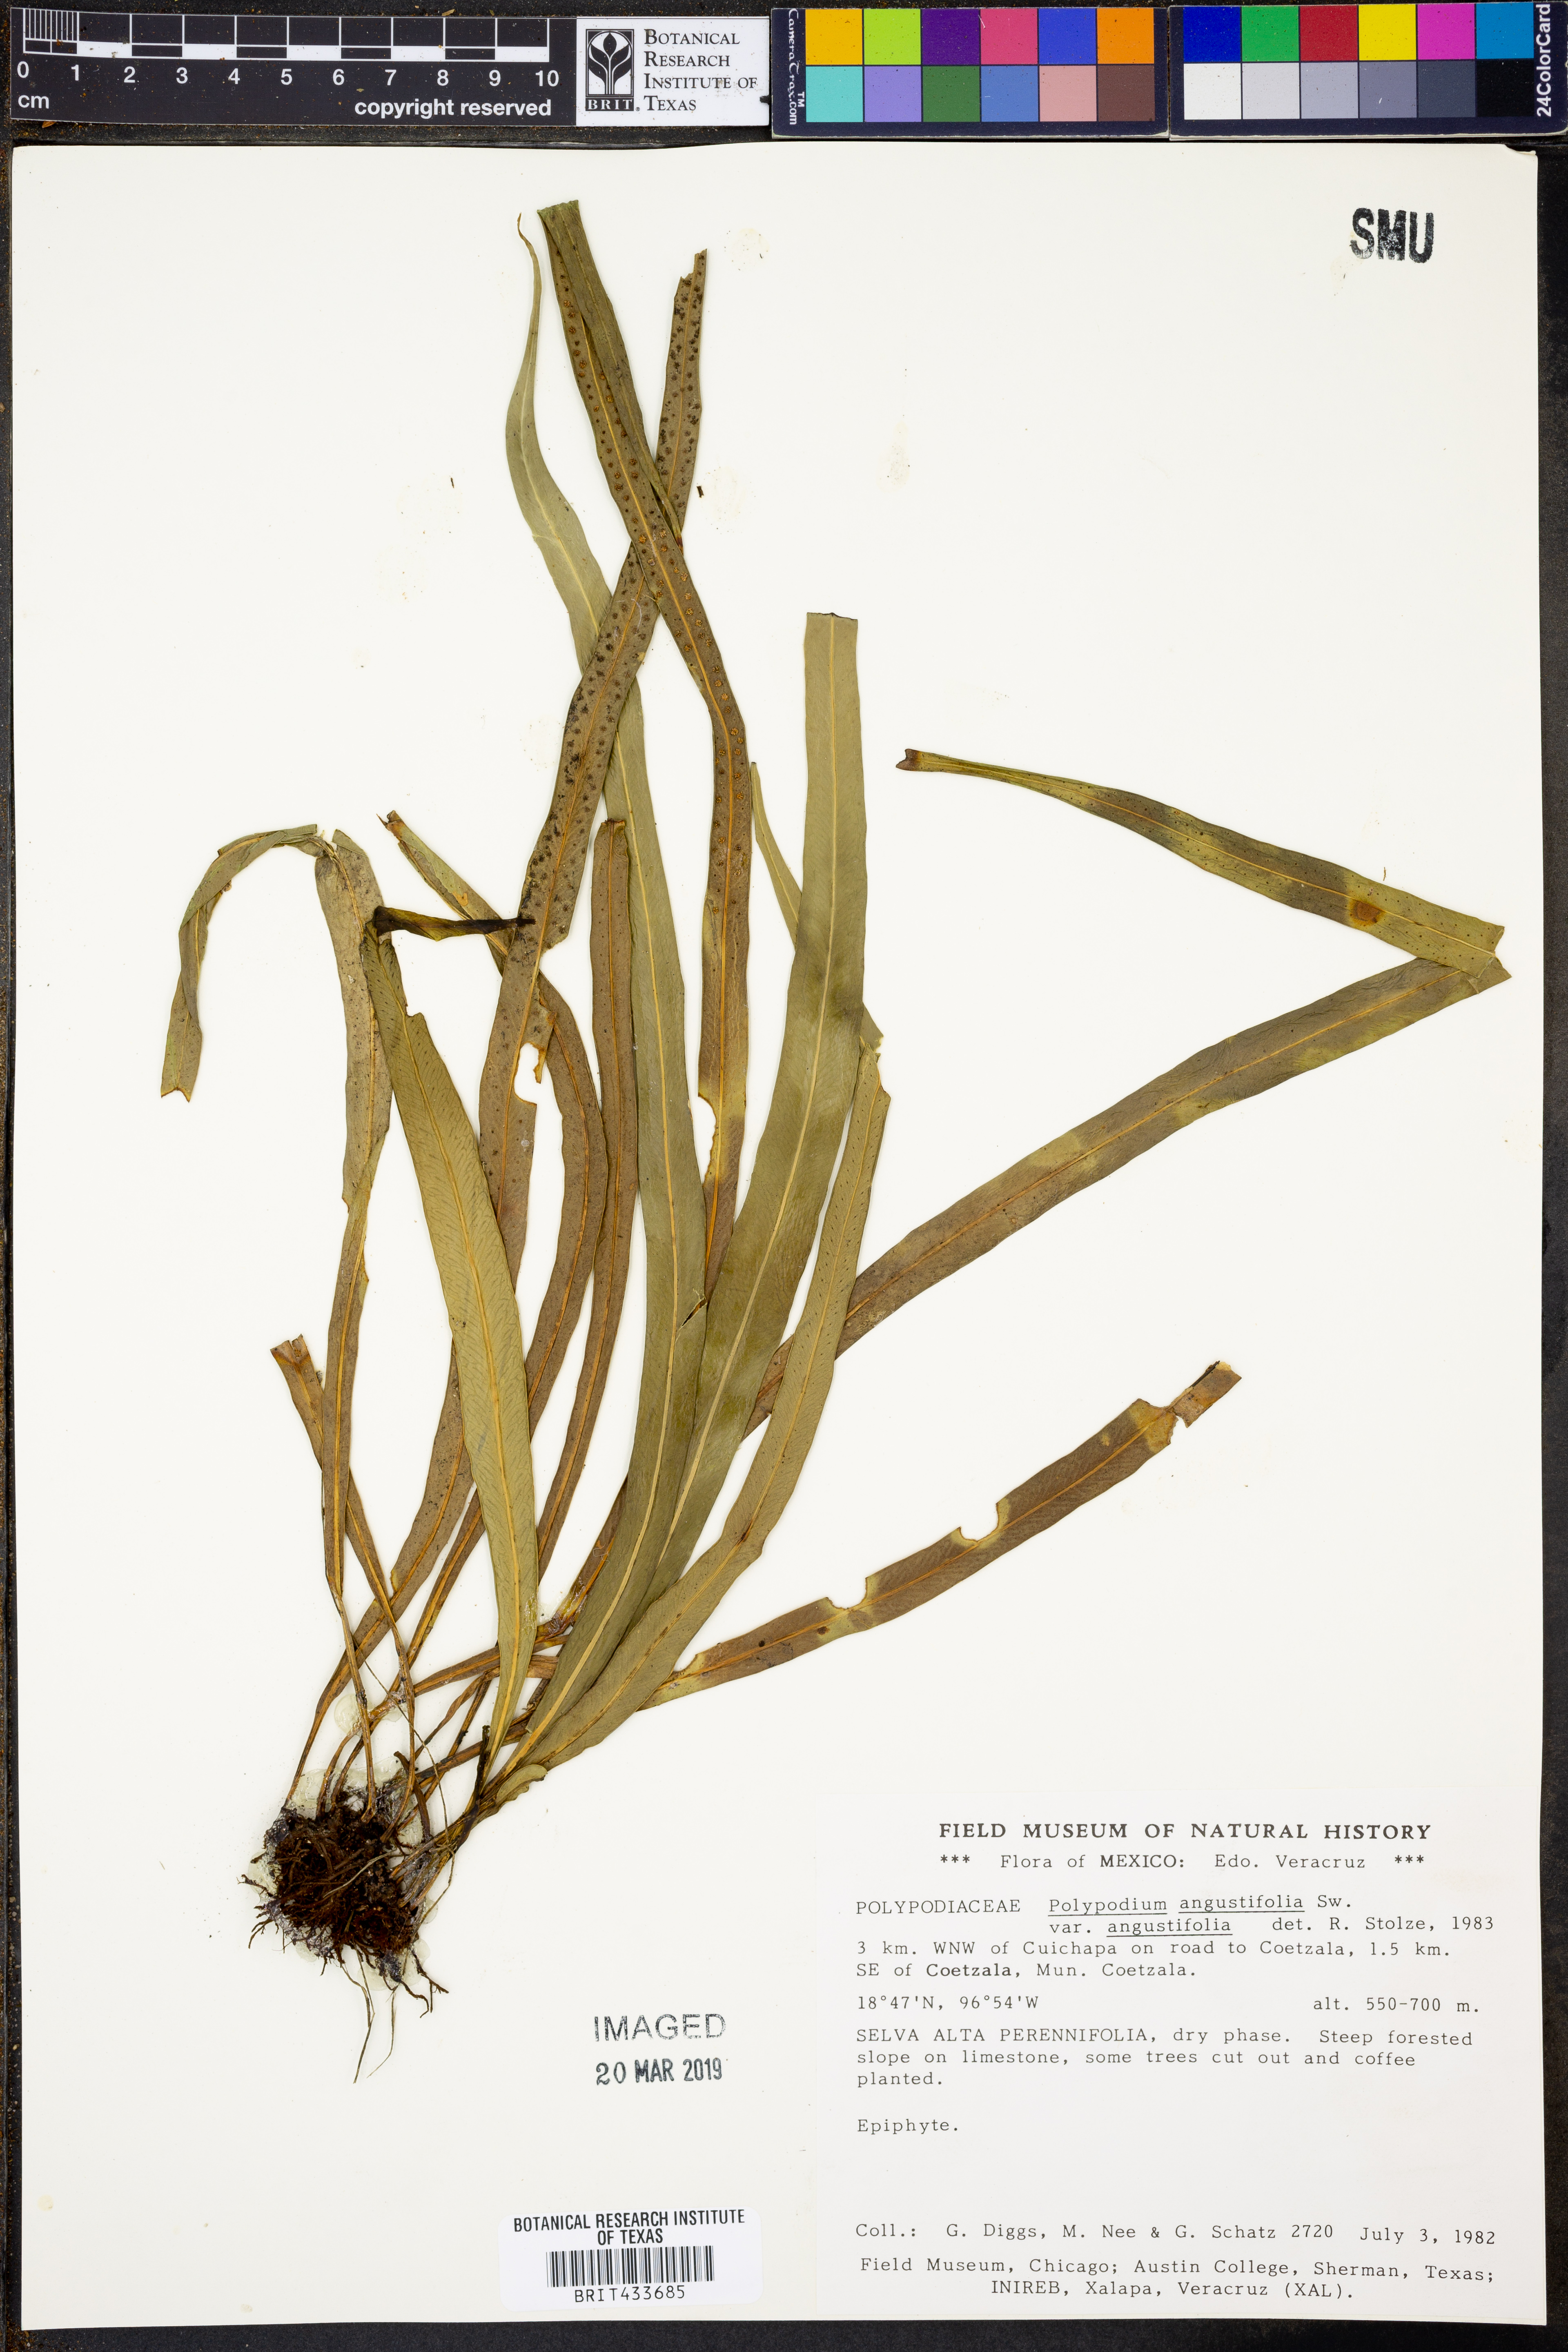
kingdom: Plantae
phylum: Tracheophyta
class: Polypodiopsida
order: Polypodiales
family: Polypodiaceae
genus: Campyloneurum
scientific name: Campyloneurum angustifolium
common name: Narrow-leaf strap fern
